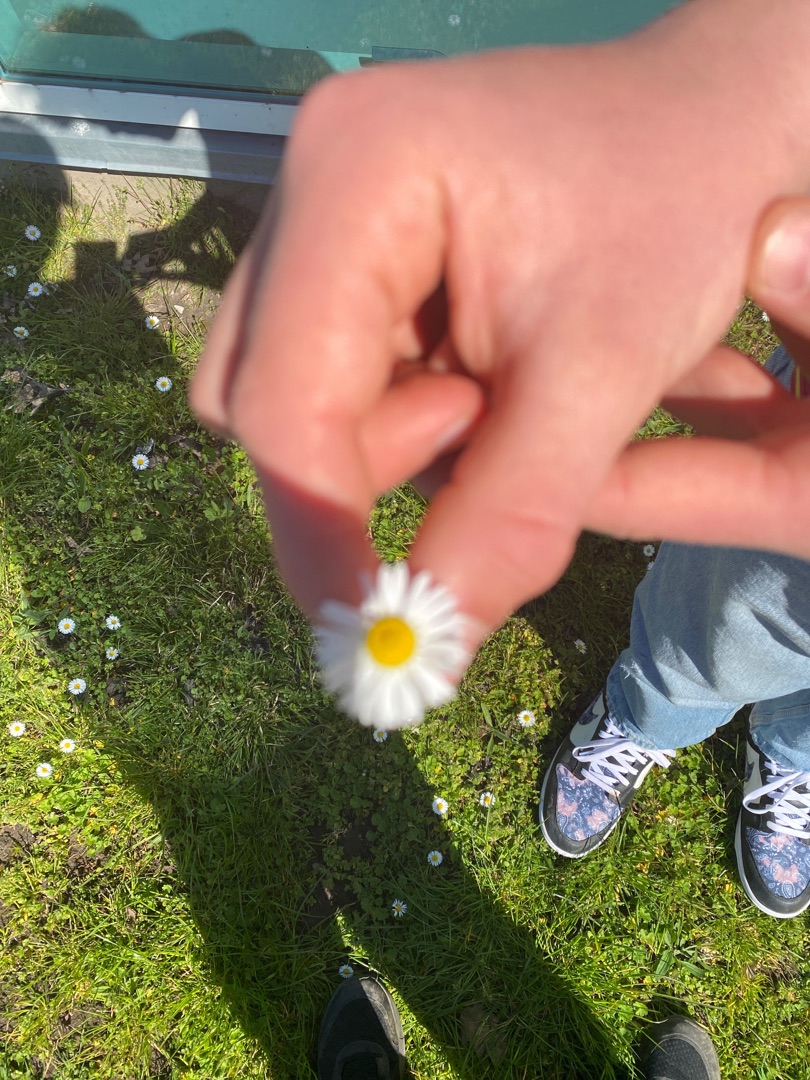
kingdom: Plantae
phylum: Tracheophyta
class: Magnoliopsida
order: Asterales
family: Asteraceae
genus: Bellis
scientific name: Bellis perennis
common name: Tusindfryd
